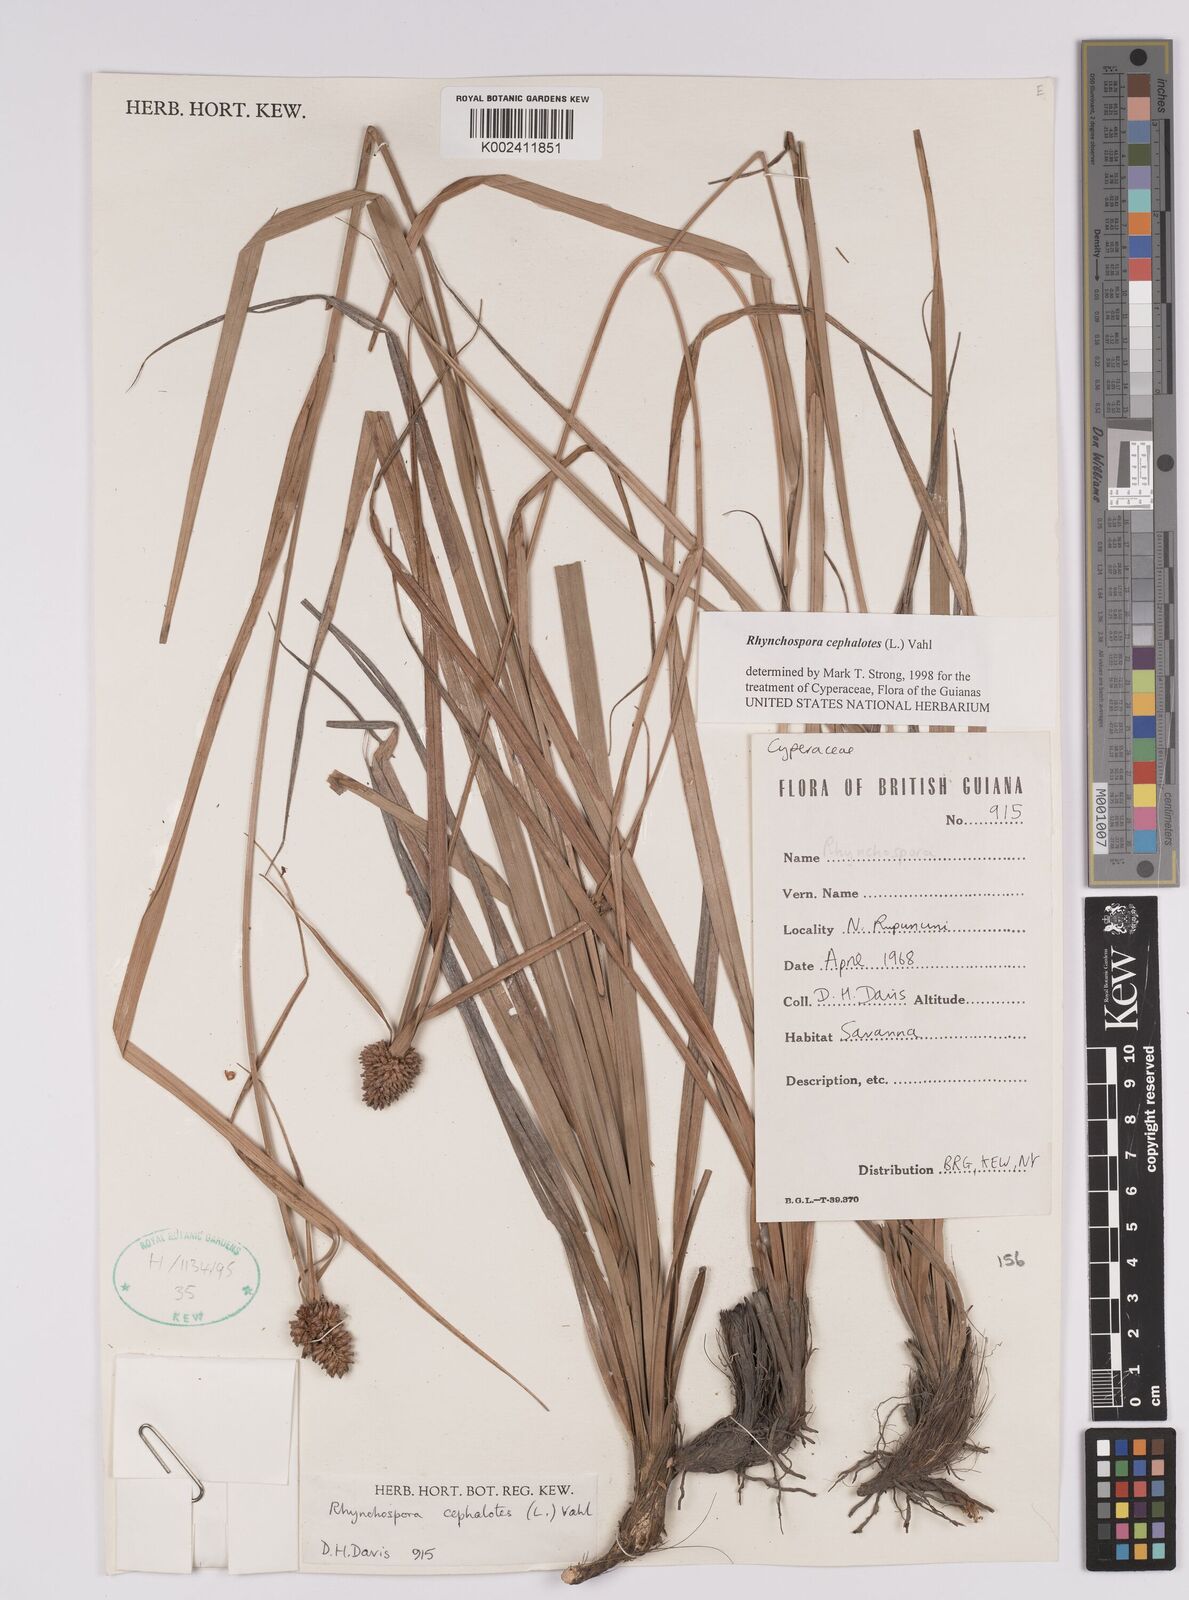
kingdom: Plantae
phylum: Tracheophyta
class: Liliopsida
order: Poales
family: Cyperaceae
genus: Rhynchospora
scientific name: Rhynchospora cephalotes
